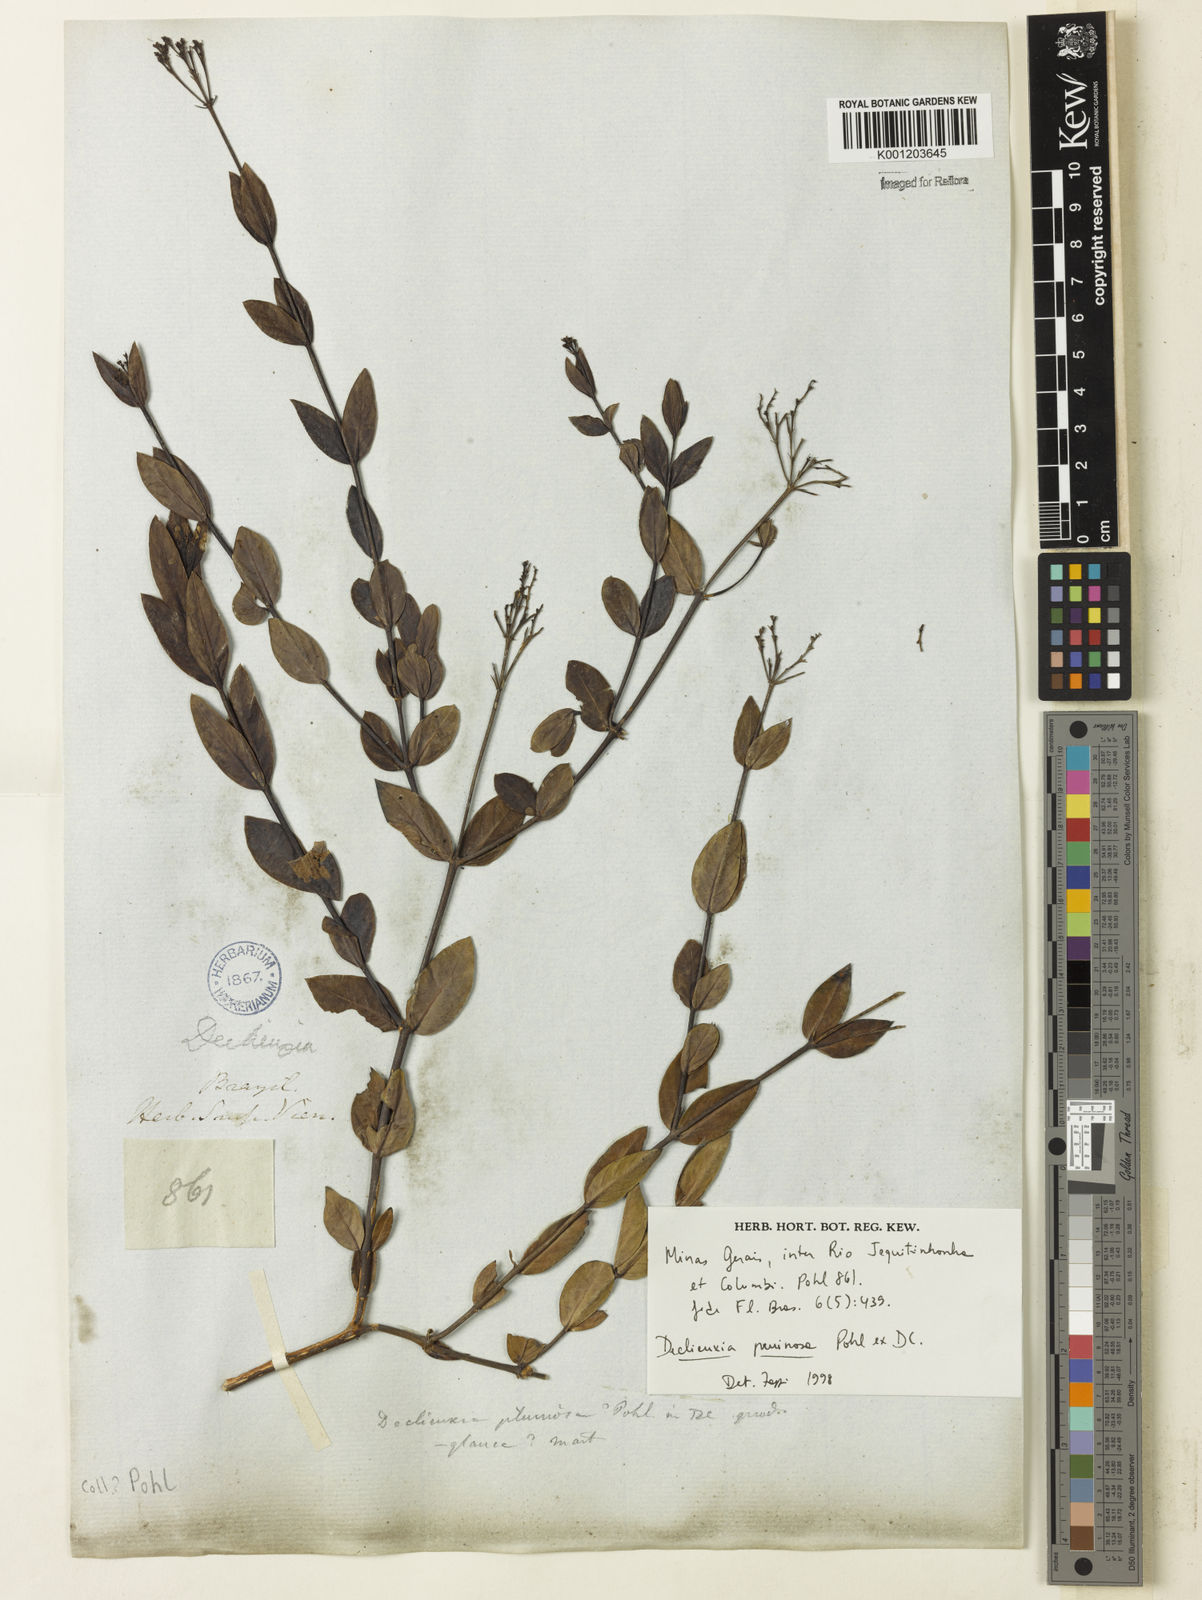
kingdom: Plantae
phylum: Tracheophyta
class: Magnoliopsida
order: Gentianales
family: Rubiaceae
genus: Declieuxia
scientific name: Declieuxia pruinosa
